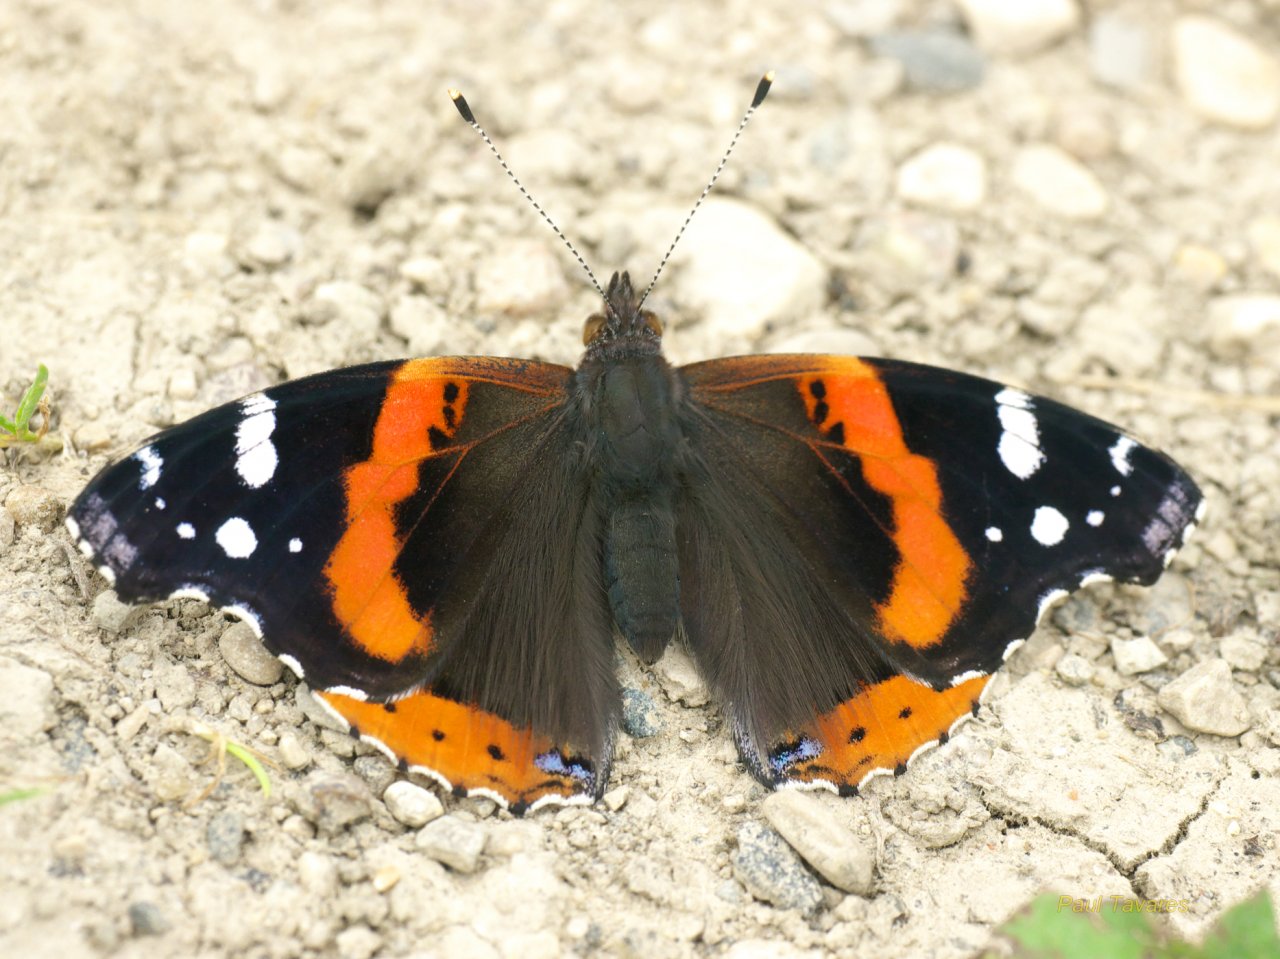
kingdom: Animalia
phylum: Arthropoda
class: Insecta
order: Lepidoptera
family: Nymphalidae
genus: Vanessa
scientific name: Vanessa atalanta
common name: Red Admiral
